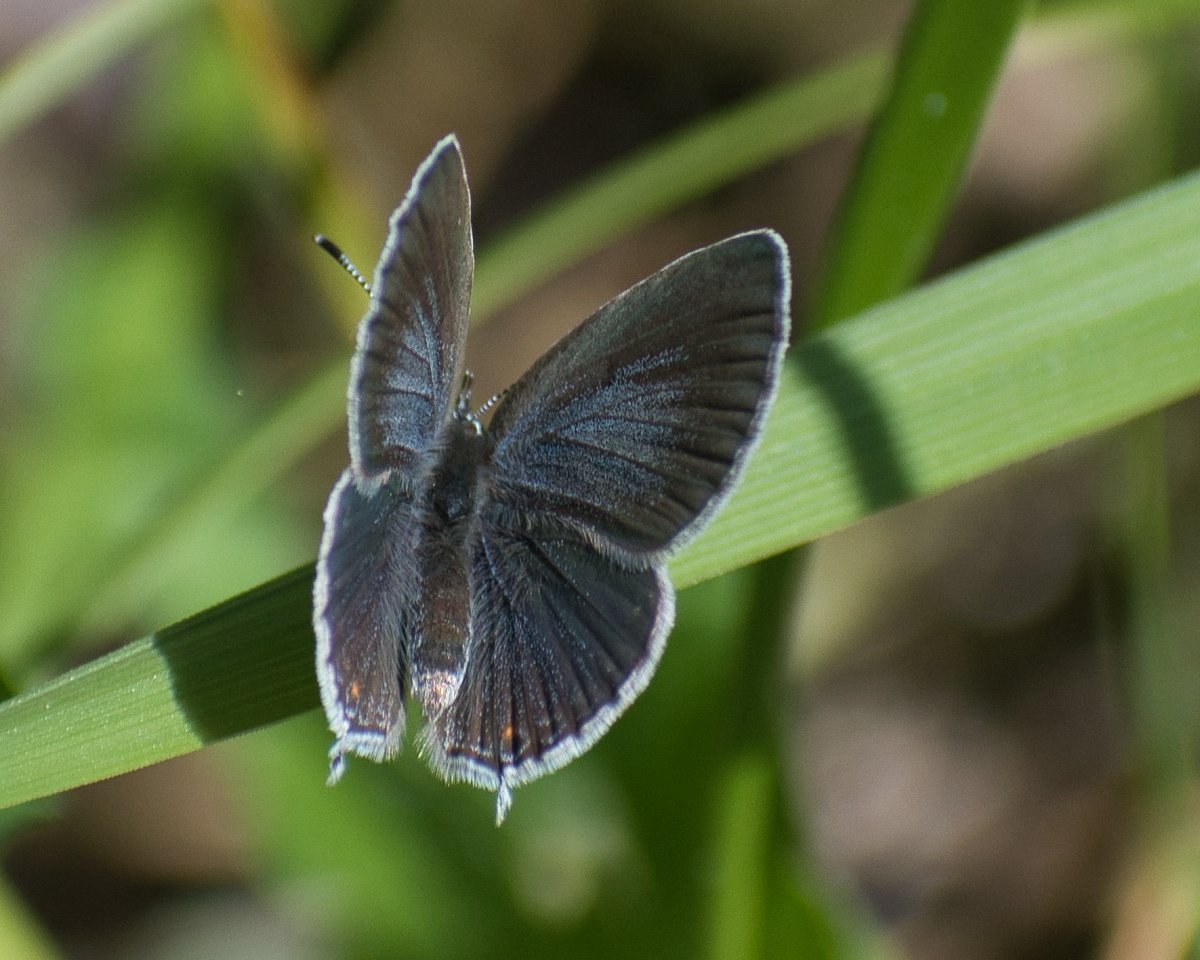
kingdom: Animalia
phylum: Arthropoda
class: Insecta
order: Lepidoptera
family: Lycaenidae
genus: Elkalyce
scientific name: Elkalyce amyntula
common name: Western Tailed-Blue
